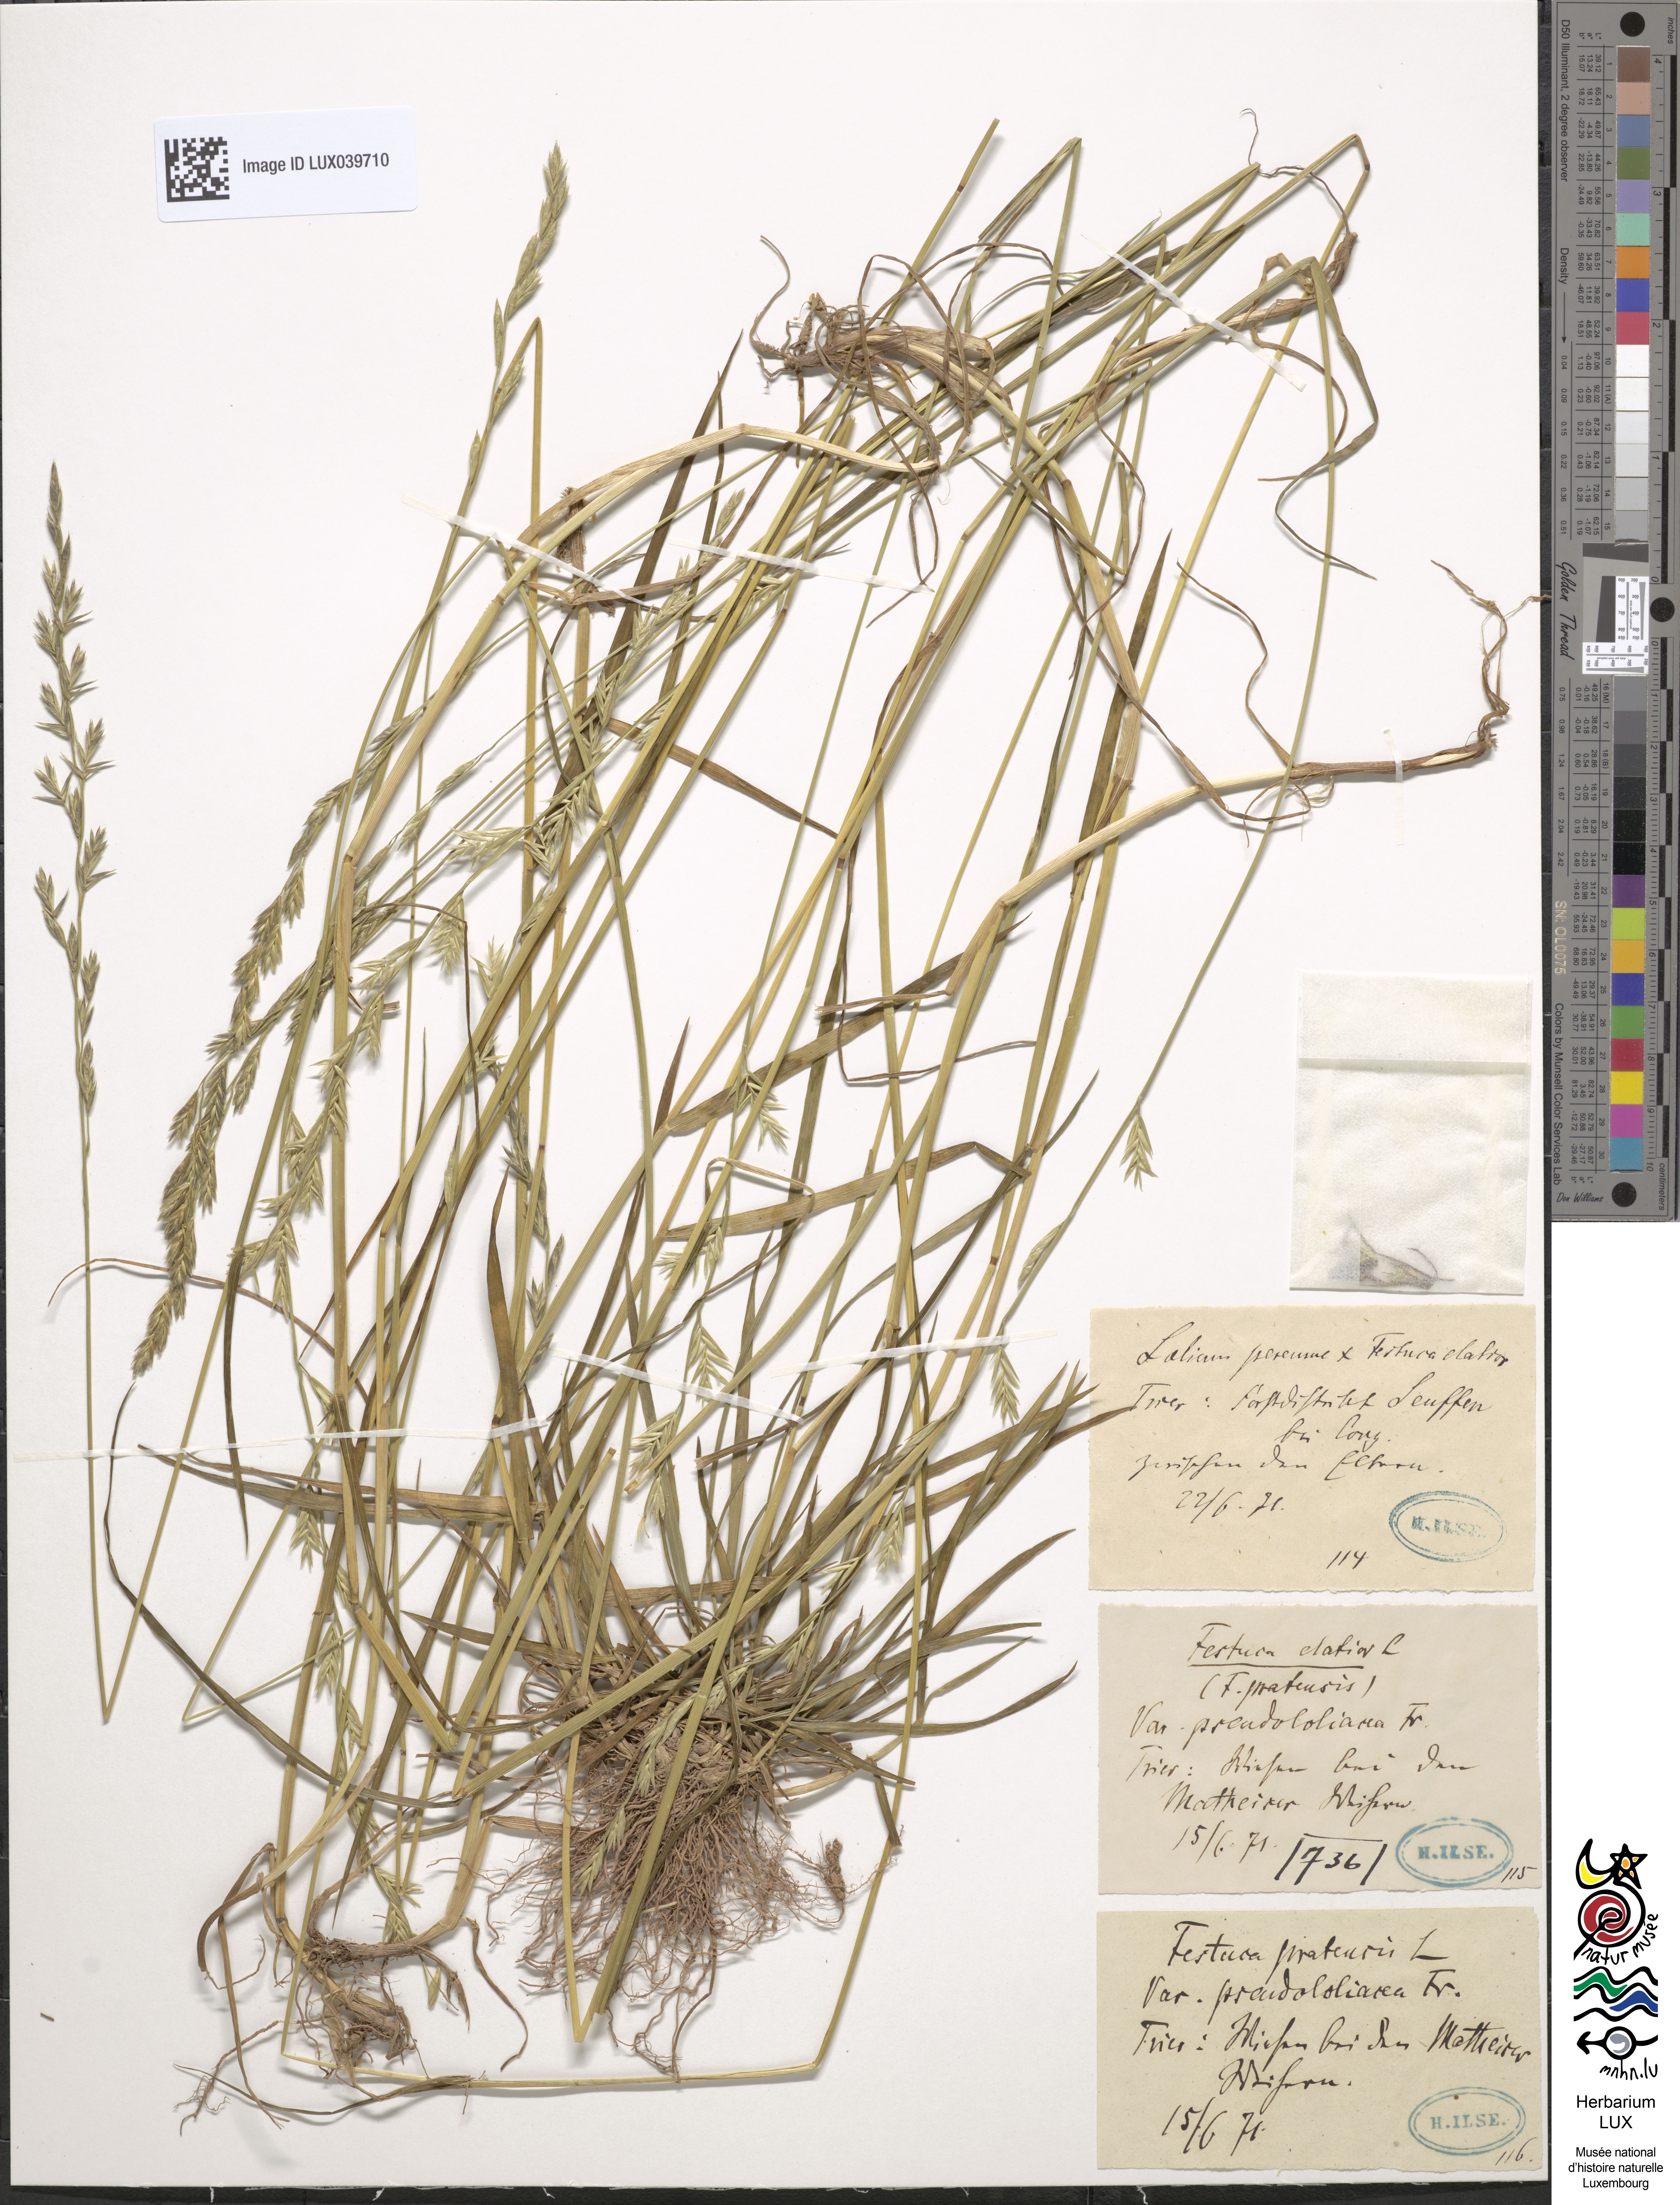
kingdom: Plantae
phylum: Tracheophyta
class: Liliopsida
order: Poales
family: Poaceae
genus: Lolium
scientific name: Lolium pratense
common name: Dover grass
